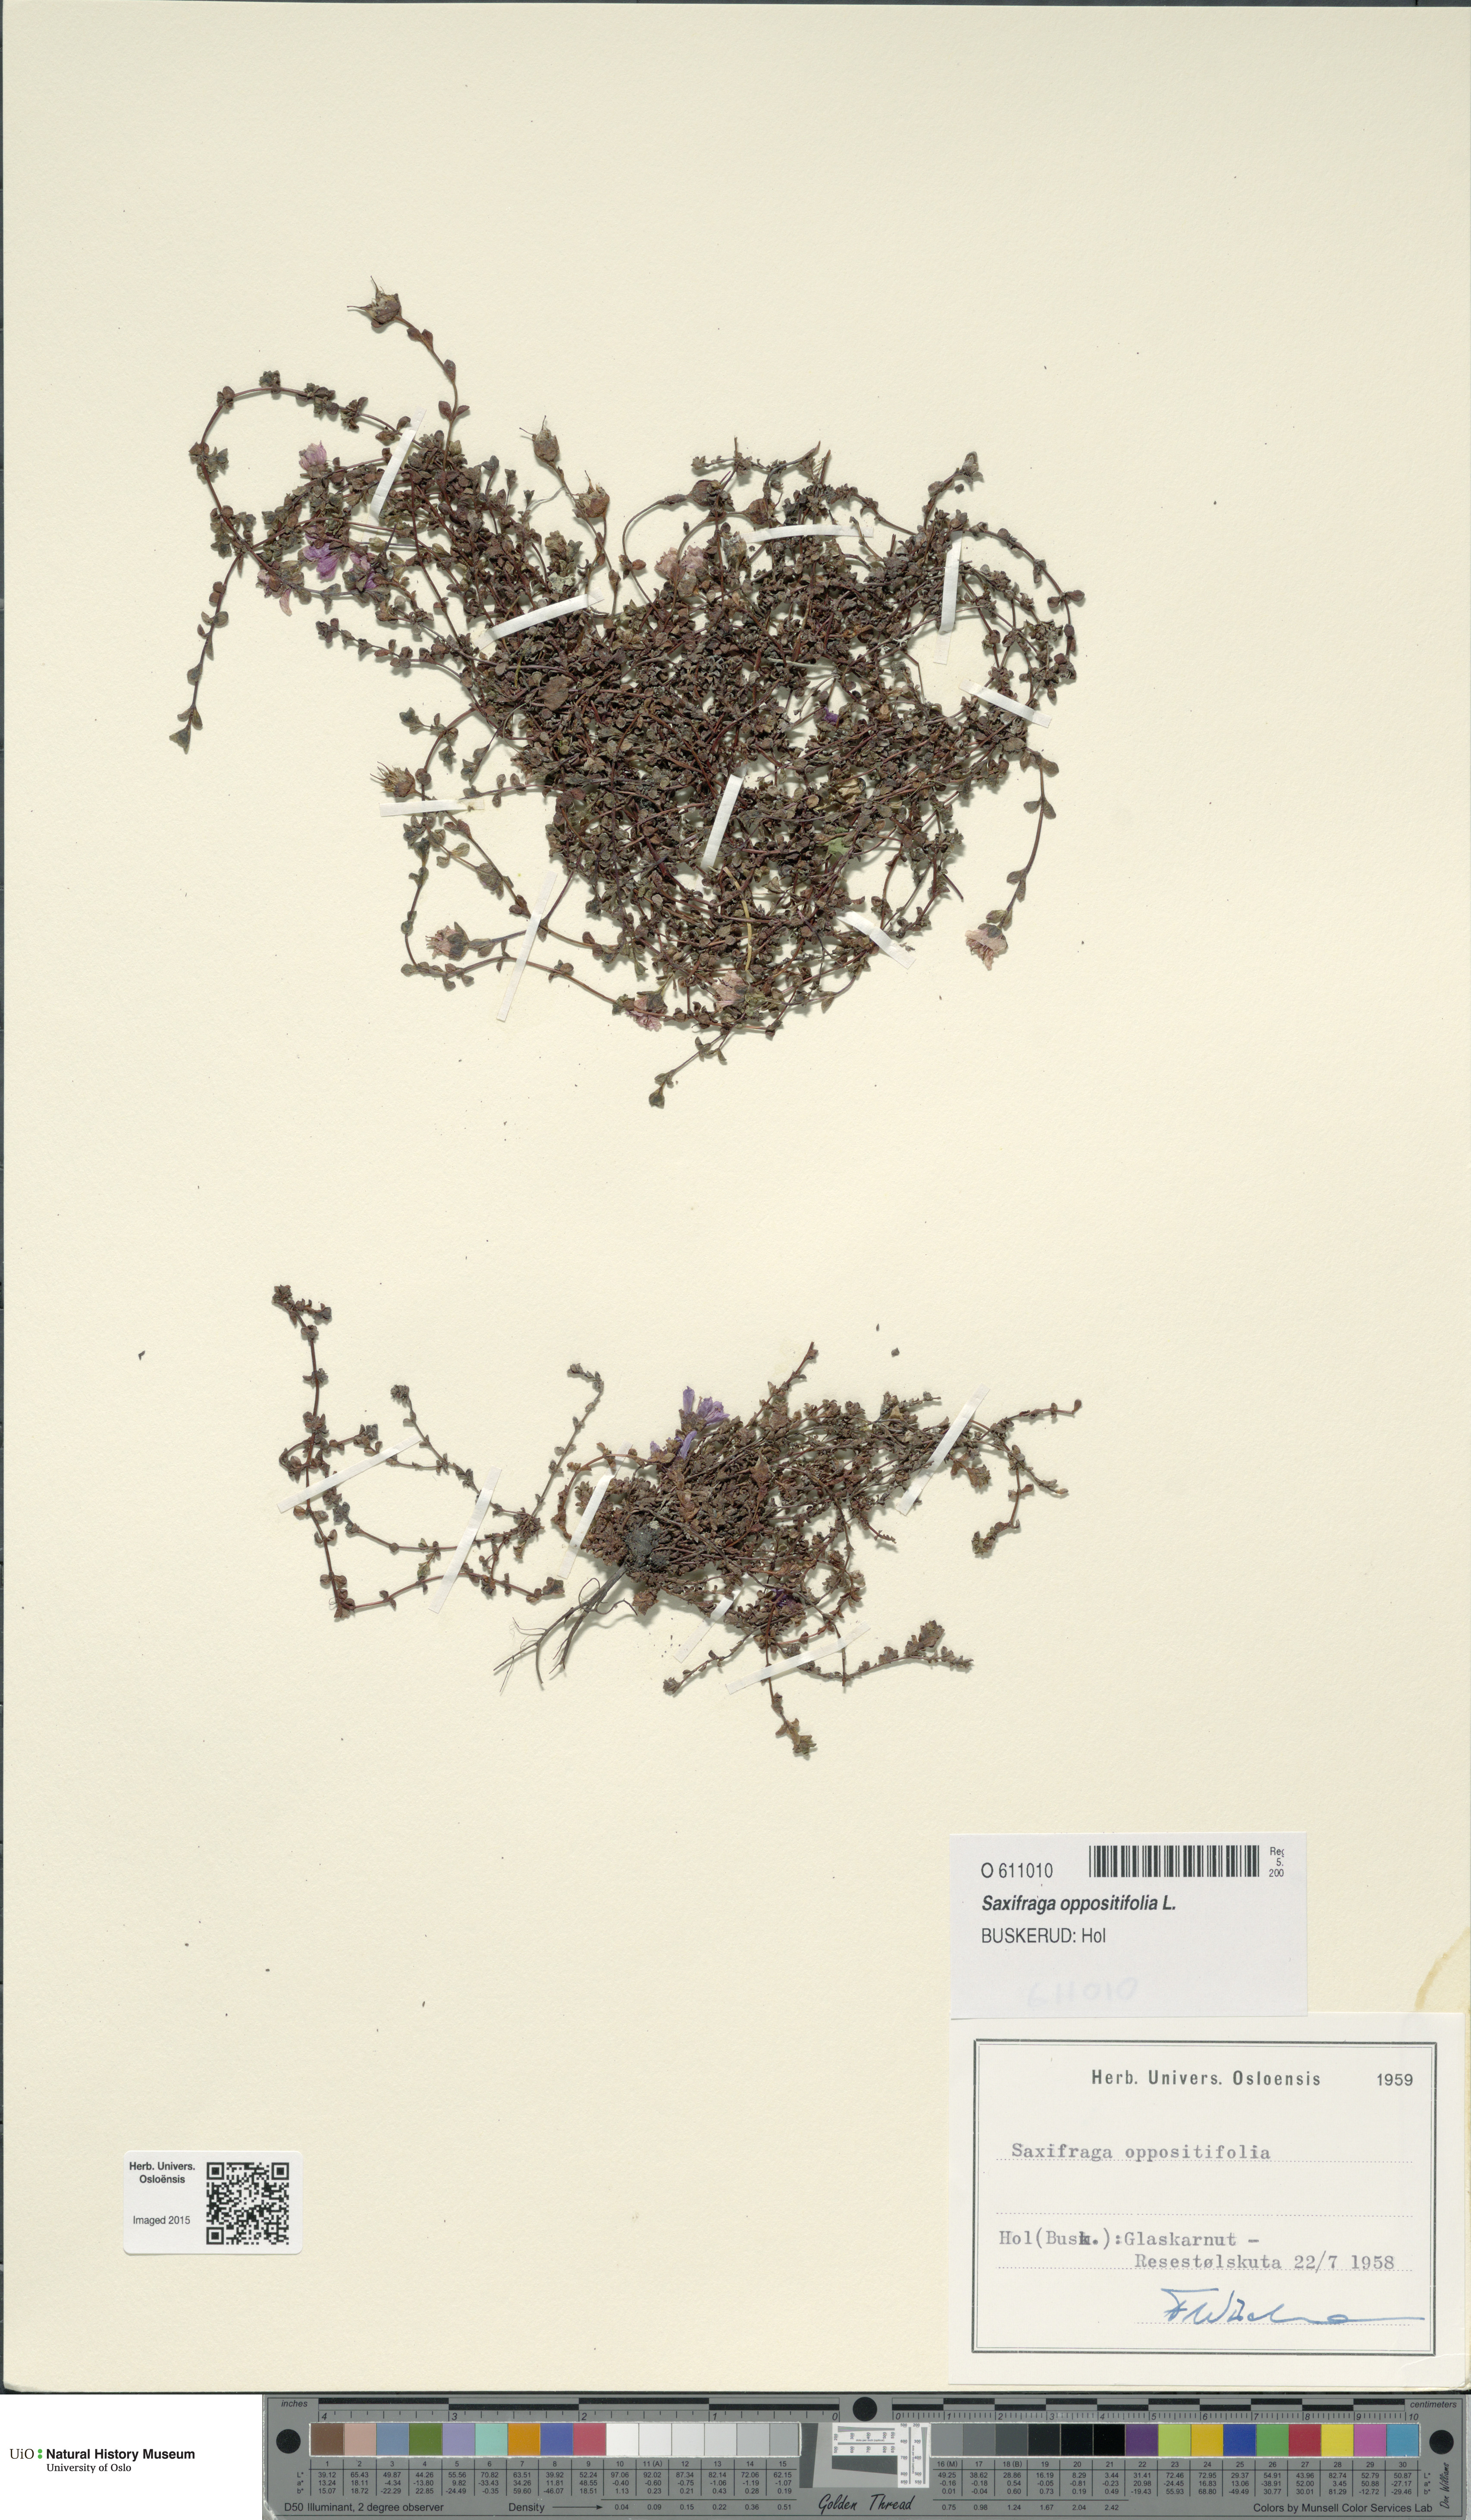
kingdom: Plantae
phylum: Tracheophyta
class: Magnoliopsida
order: Saxifragales
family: Saxifragaceae
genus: Saxifraga
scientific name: Saxifraga oppositifolia
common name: Purple saxifrage
